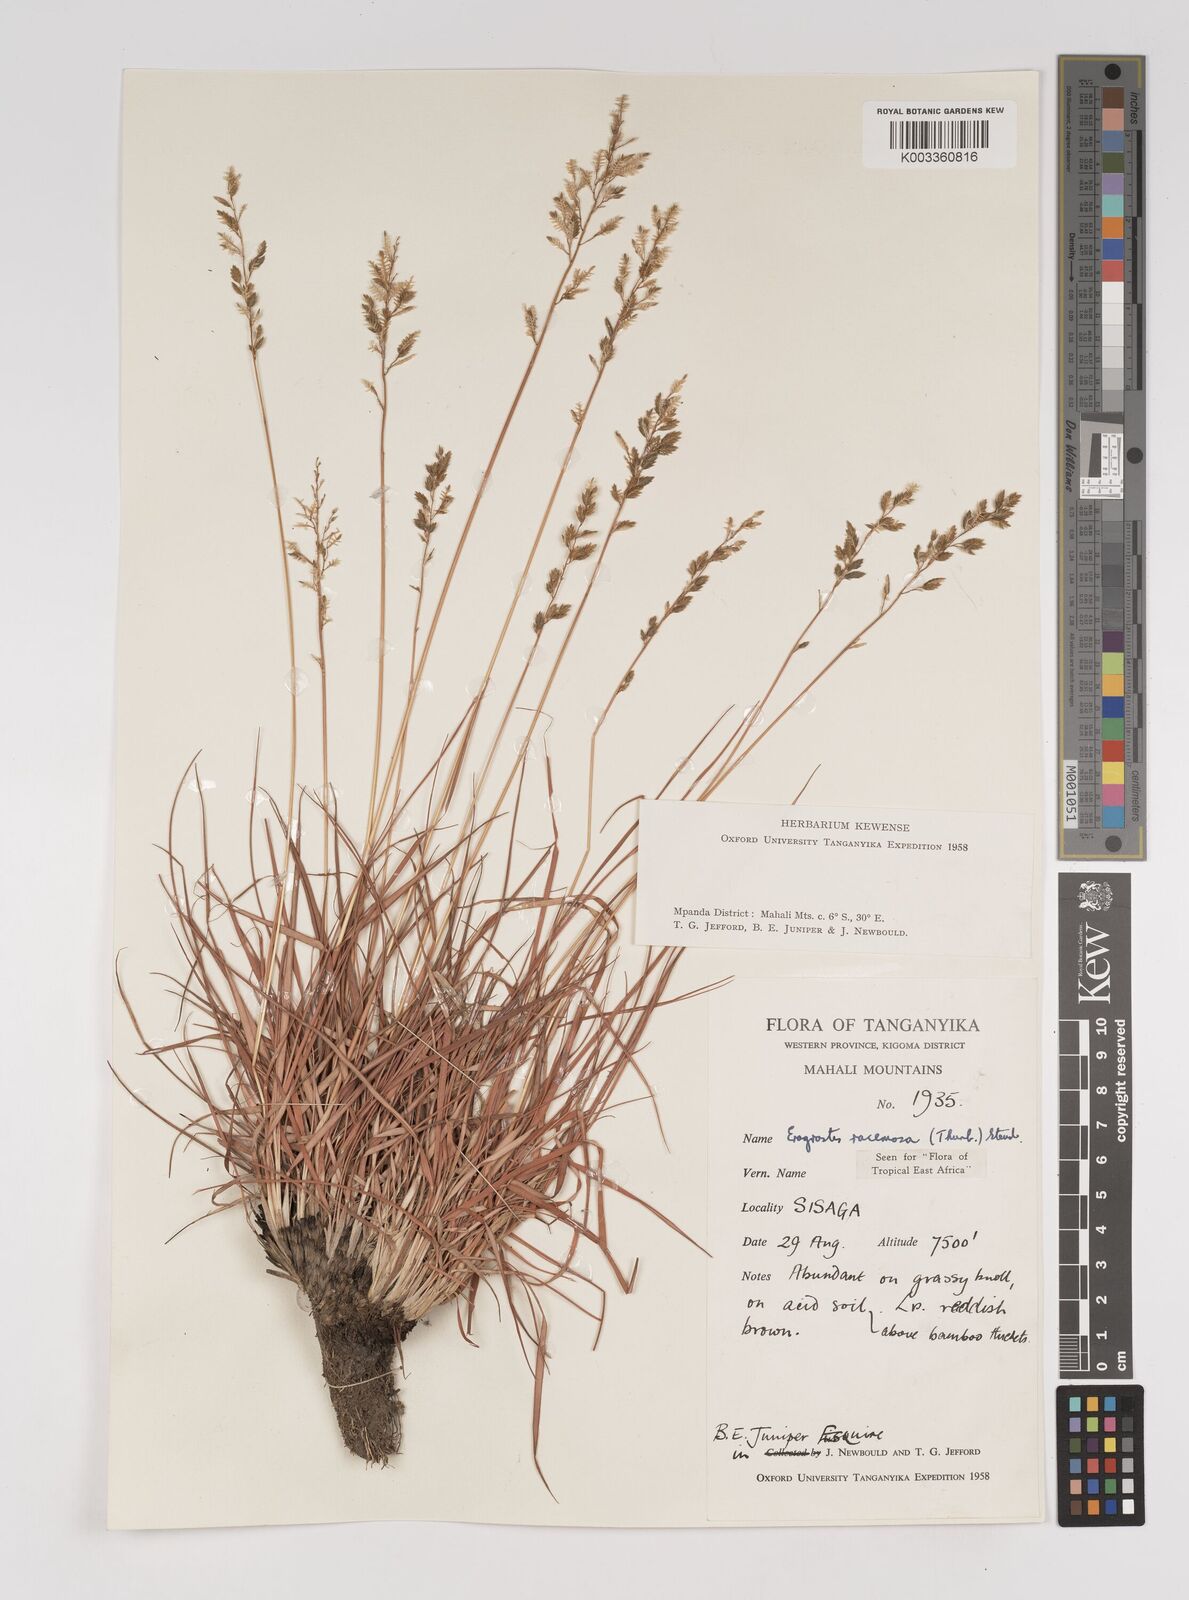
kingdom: Plantae
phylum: Tracheophyta
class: Liliopsida
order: Poales
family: Poaceae
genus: Eragrostis
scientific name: Eragrostis racemosa
